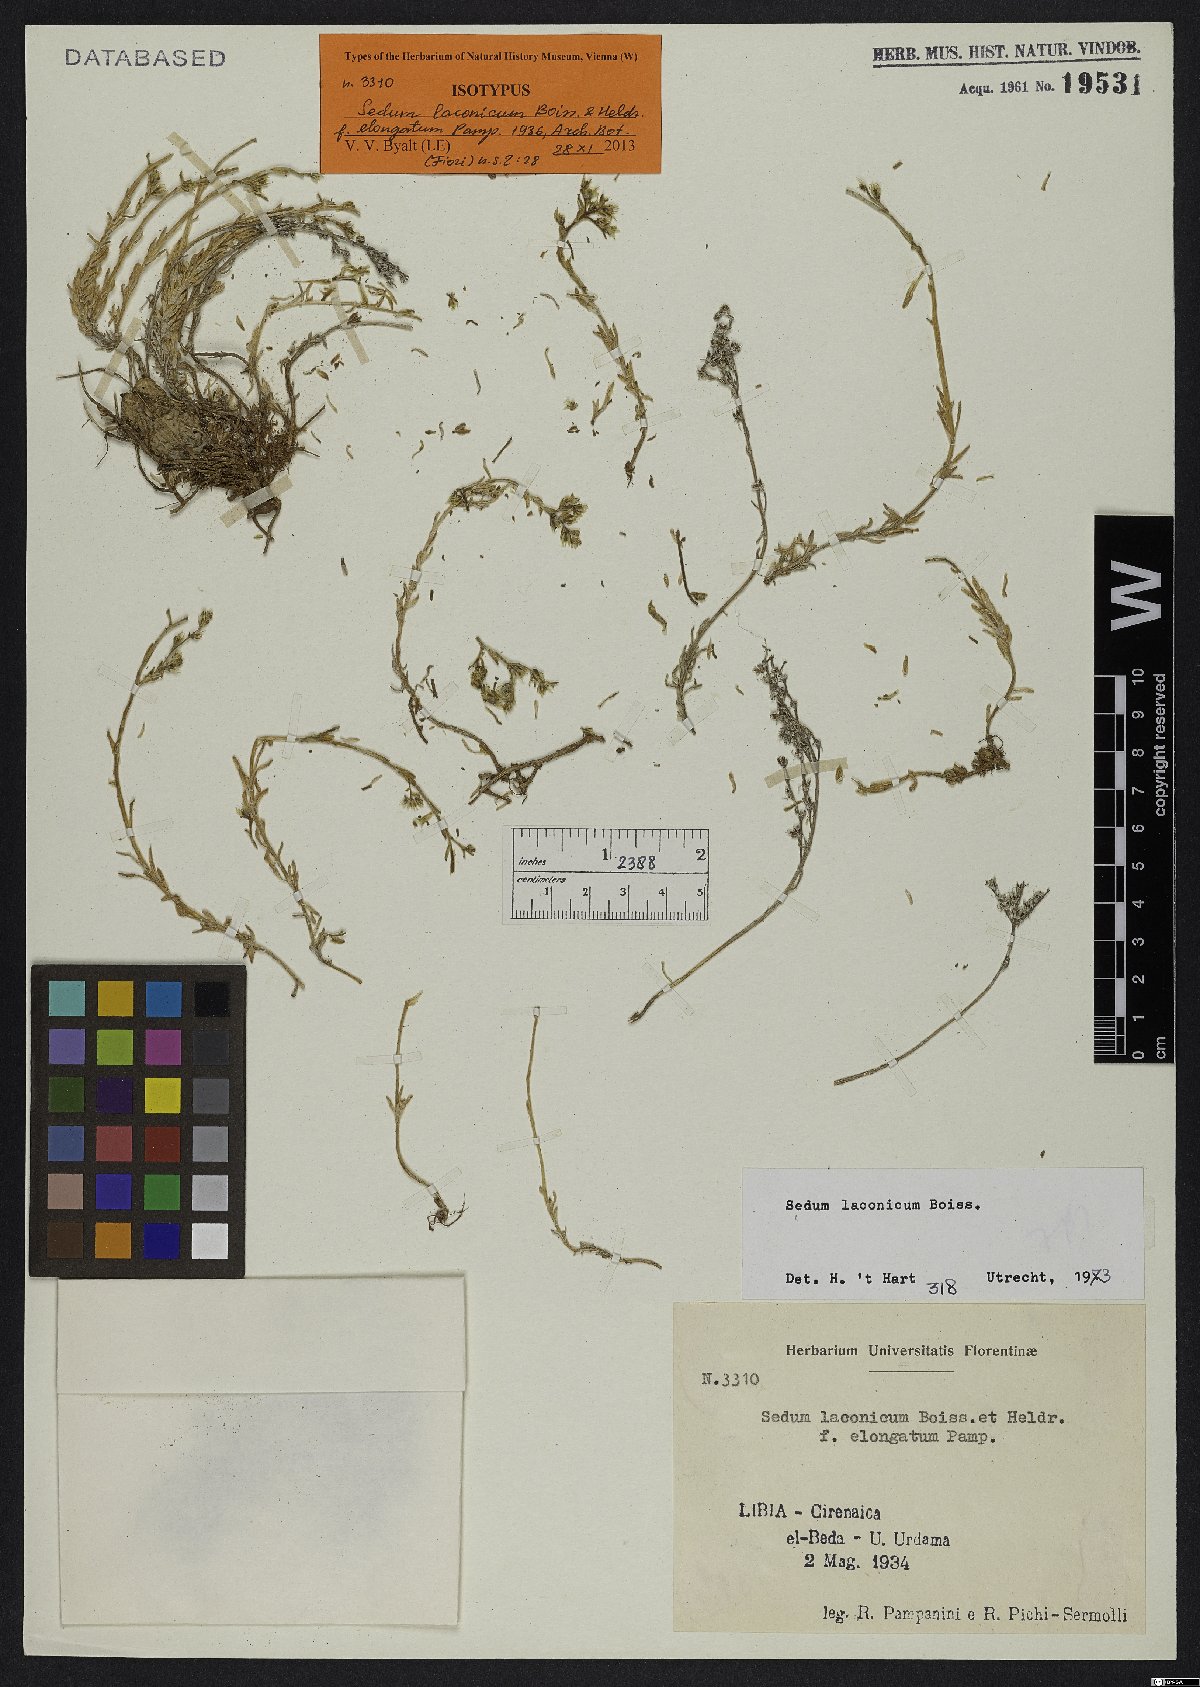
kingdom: Plantae
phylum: Tracheophyta
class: Magnoliopsida
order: Saxifragales
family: Crassulaceae
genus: Sedum
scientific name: Sedum laconicum
